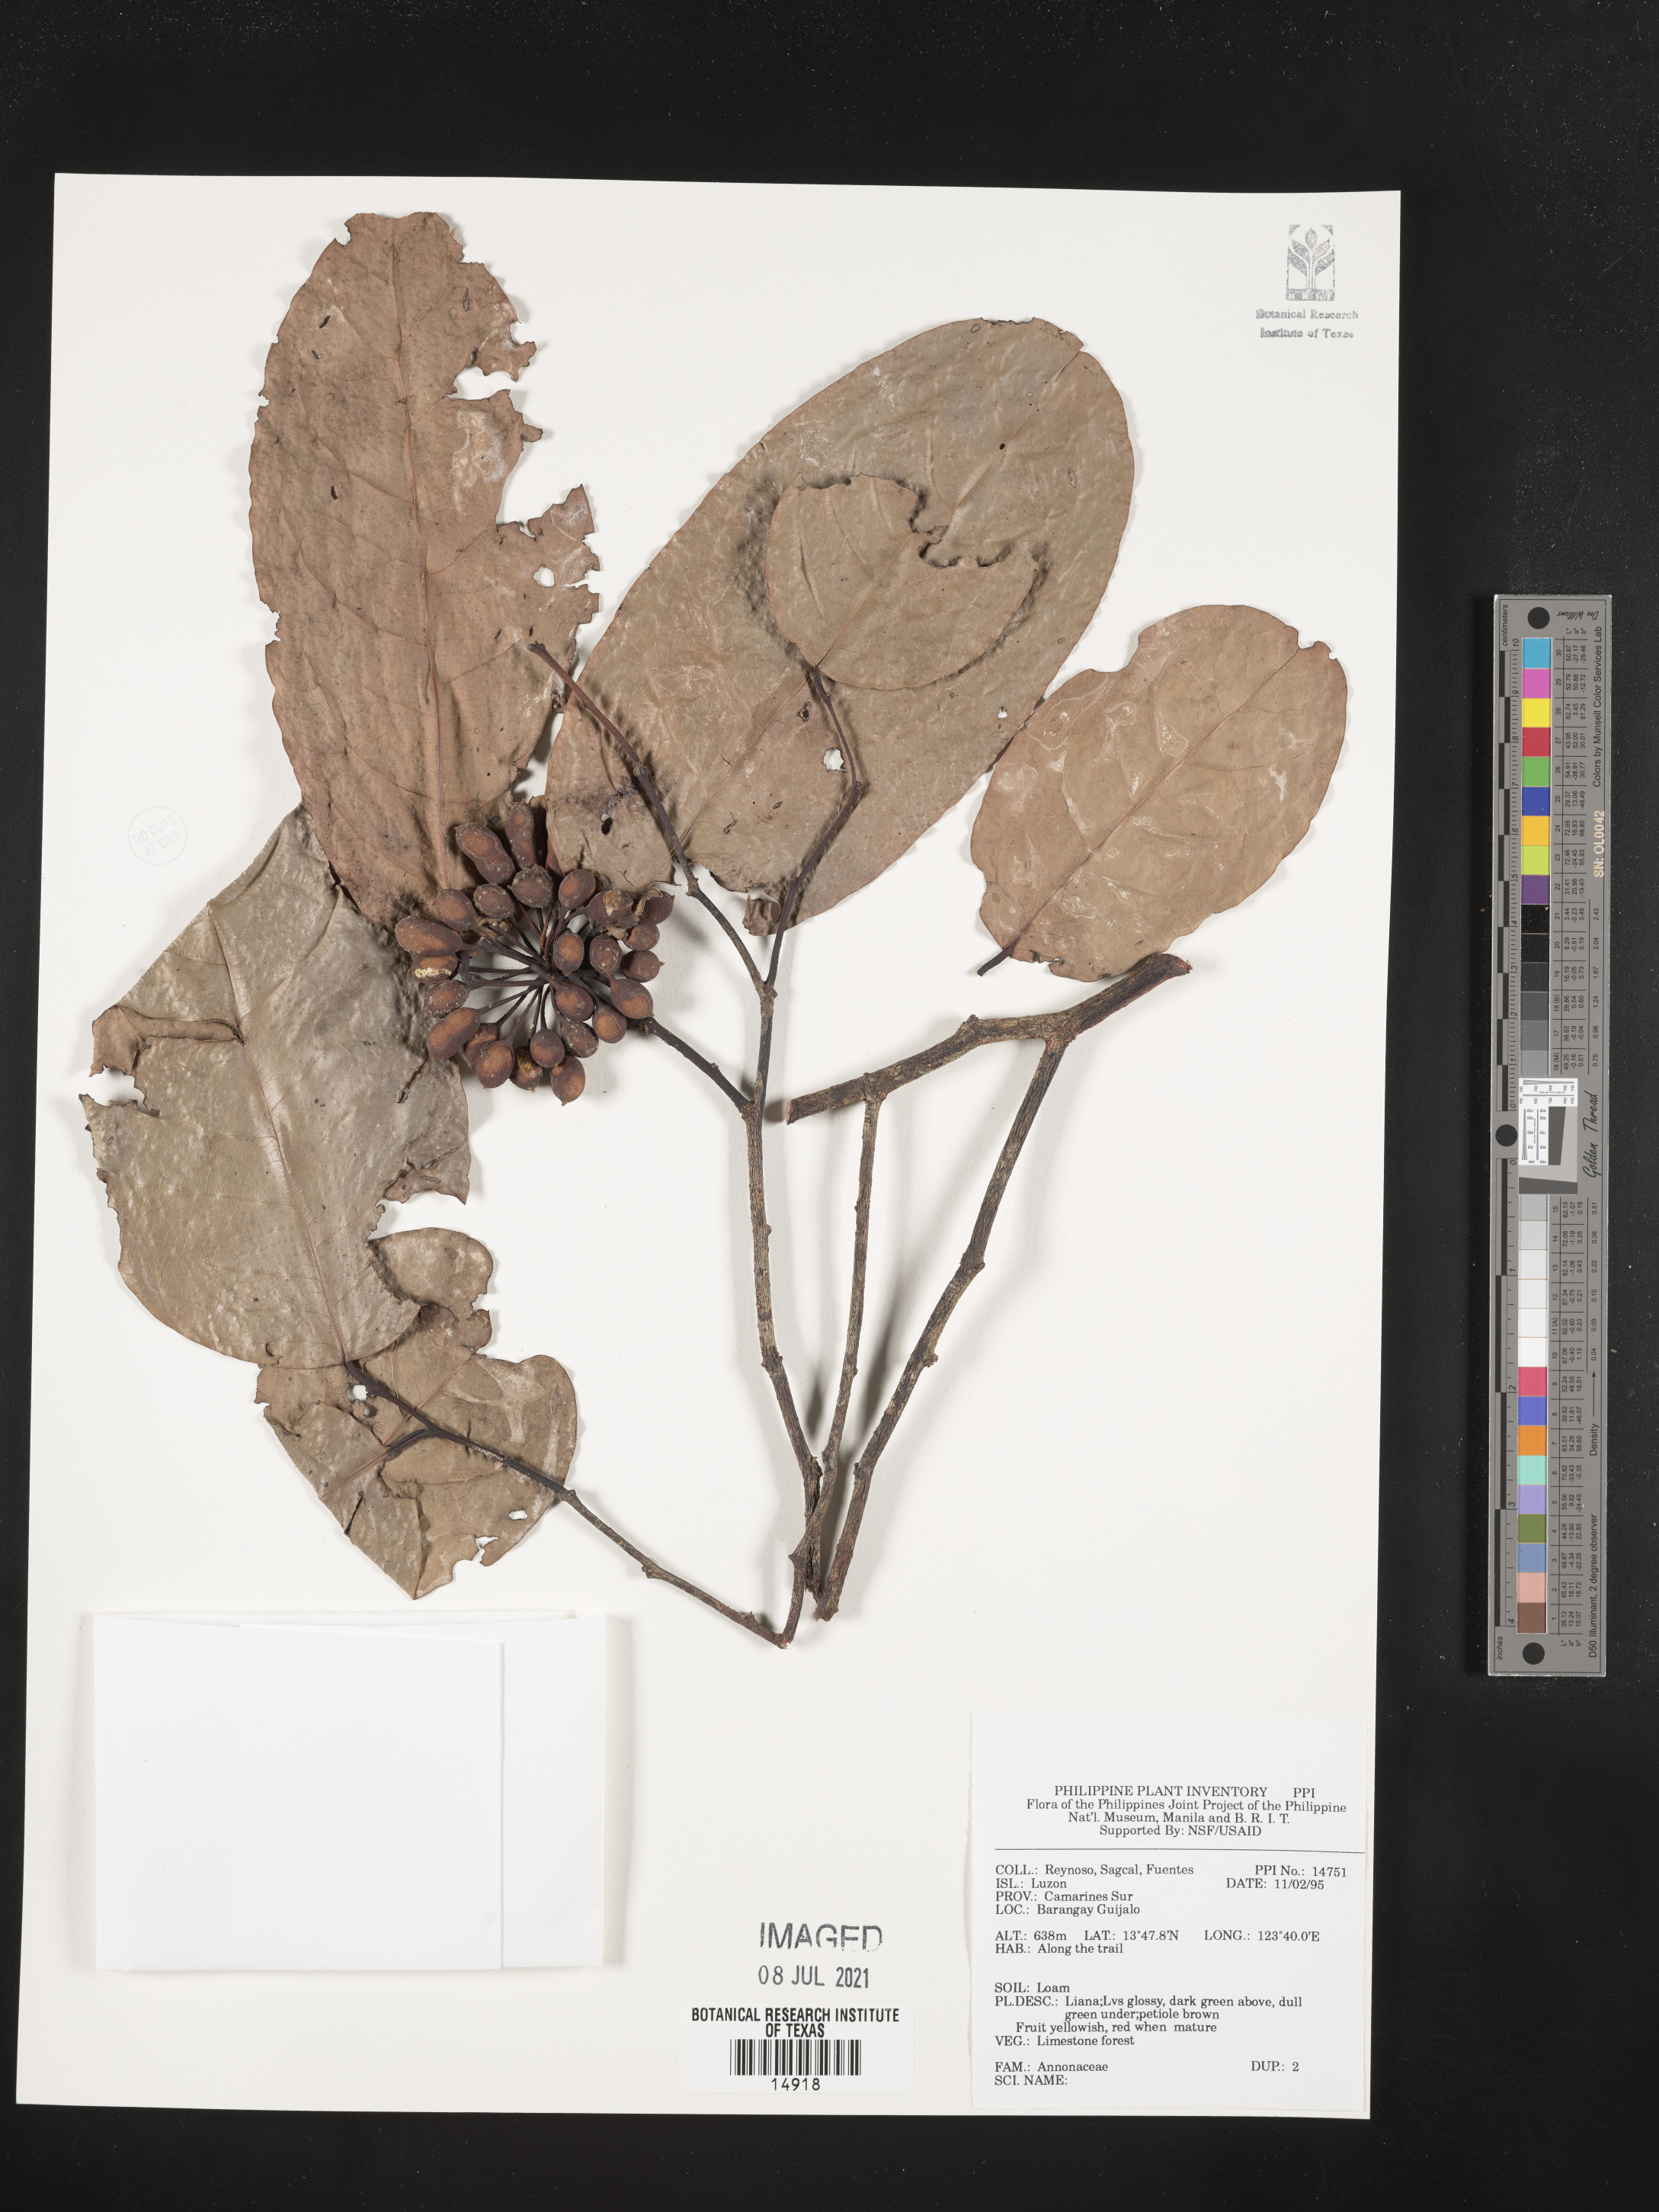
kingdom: Plantae
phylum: Tracheophyta
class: Magnoliopsida
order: Magnoliales
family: Annonaceae
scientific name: Annonaceae
